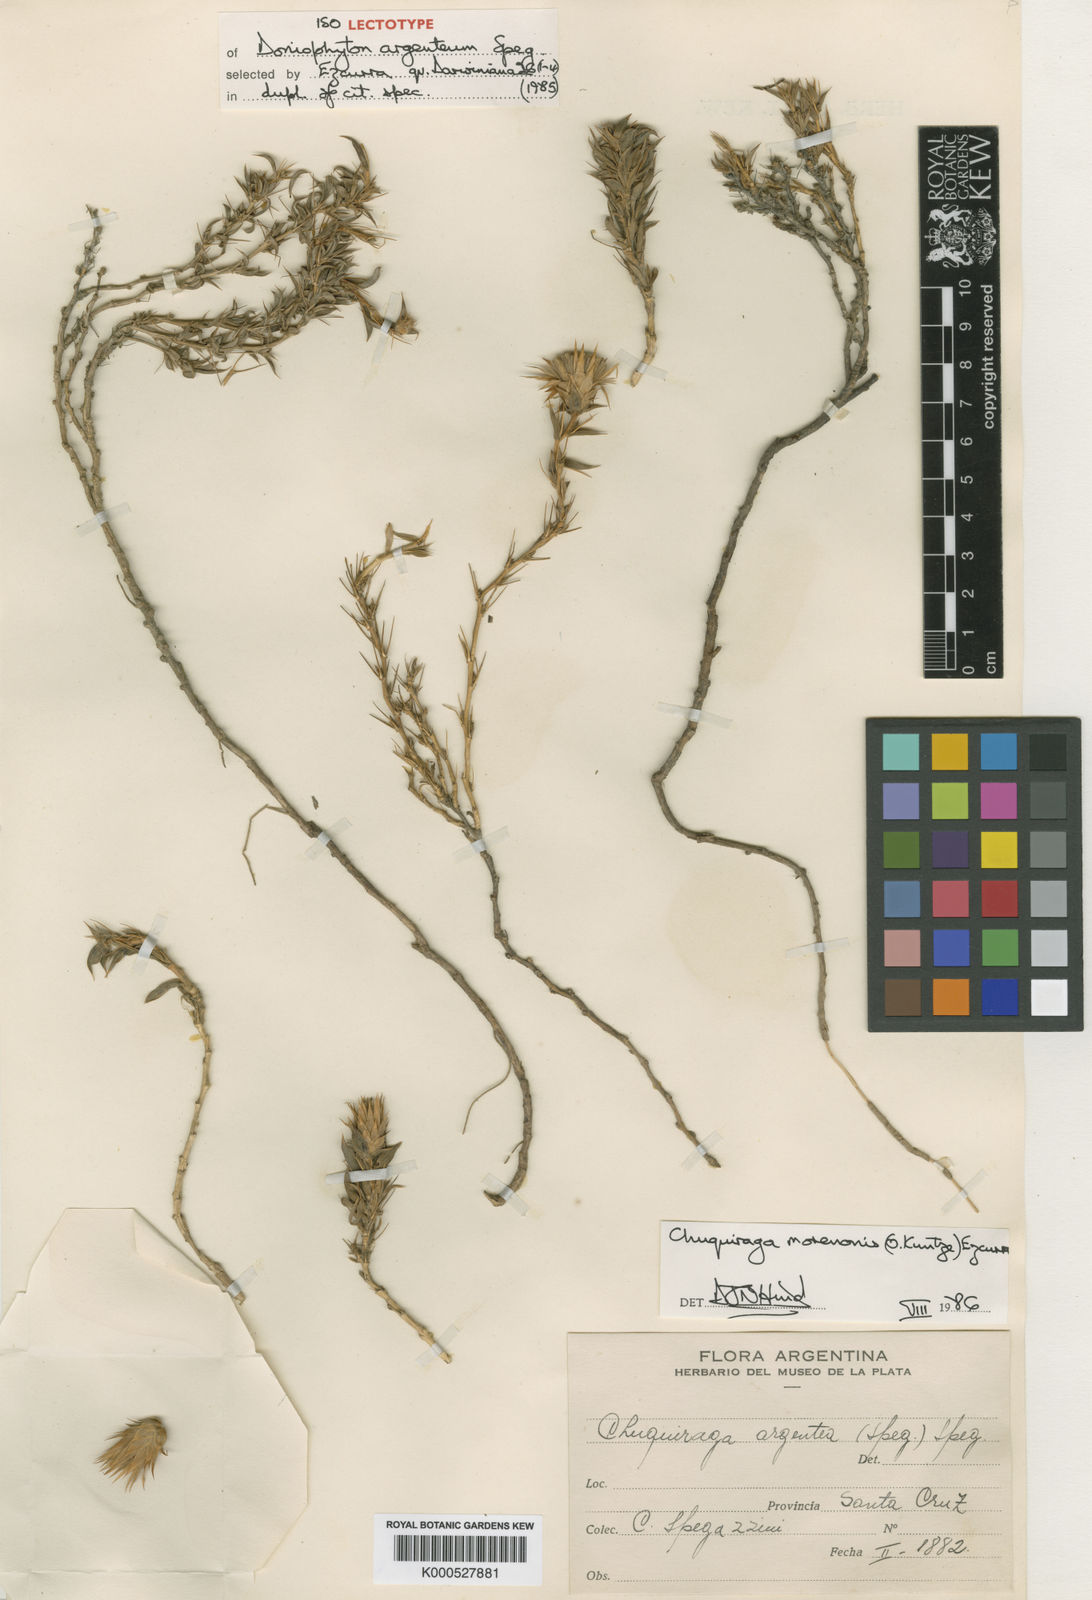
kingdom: Plantae
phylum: Tracheophyta
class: Magnoliopsida
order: Asterales
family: Asteraceae
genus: Chuquiraga
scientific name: Chuquiraga morenonis
